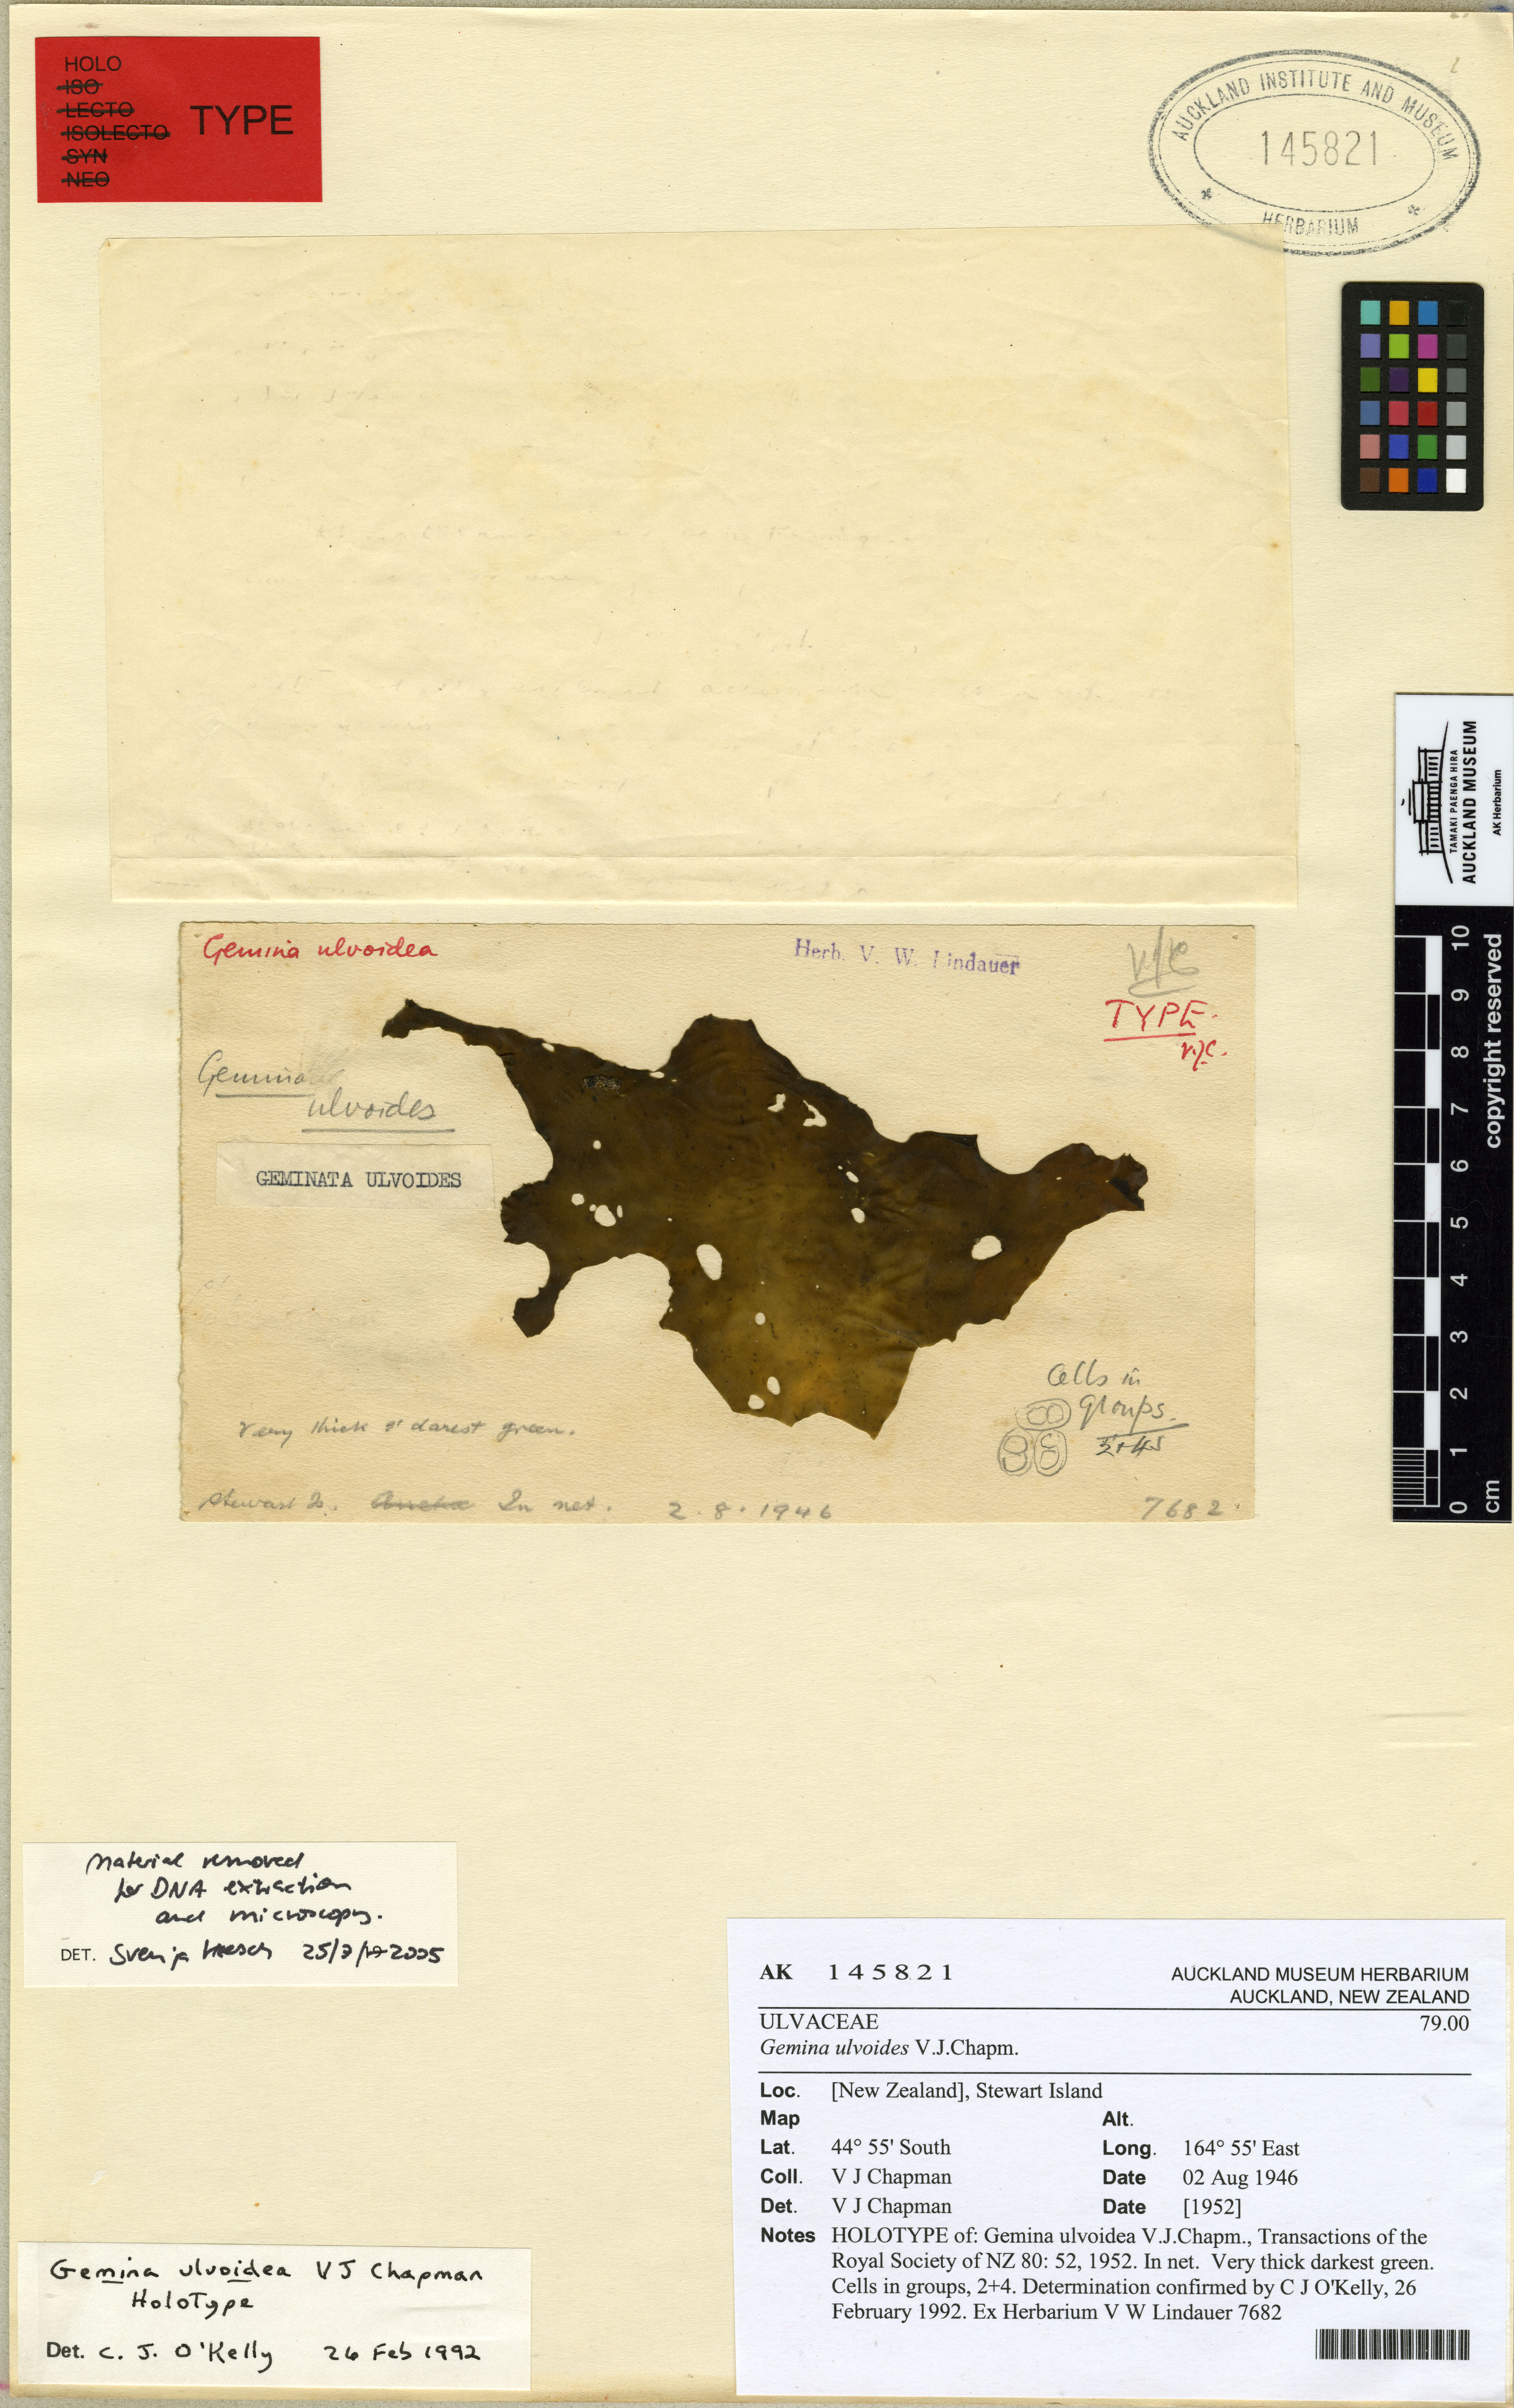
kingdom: Plantae
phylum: Chlorophyta
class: Ulvophyceae
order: Ulvales
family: Ulvaceae
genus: Gemina
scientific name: Gemina ulvoidea
